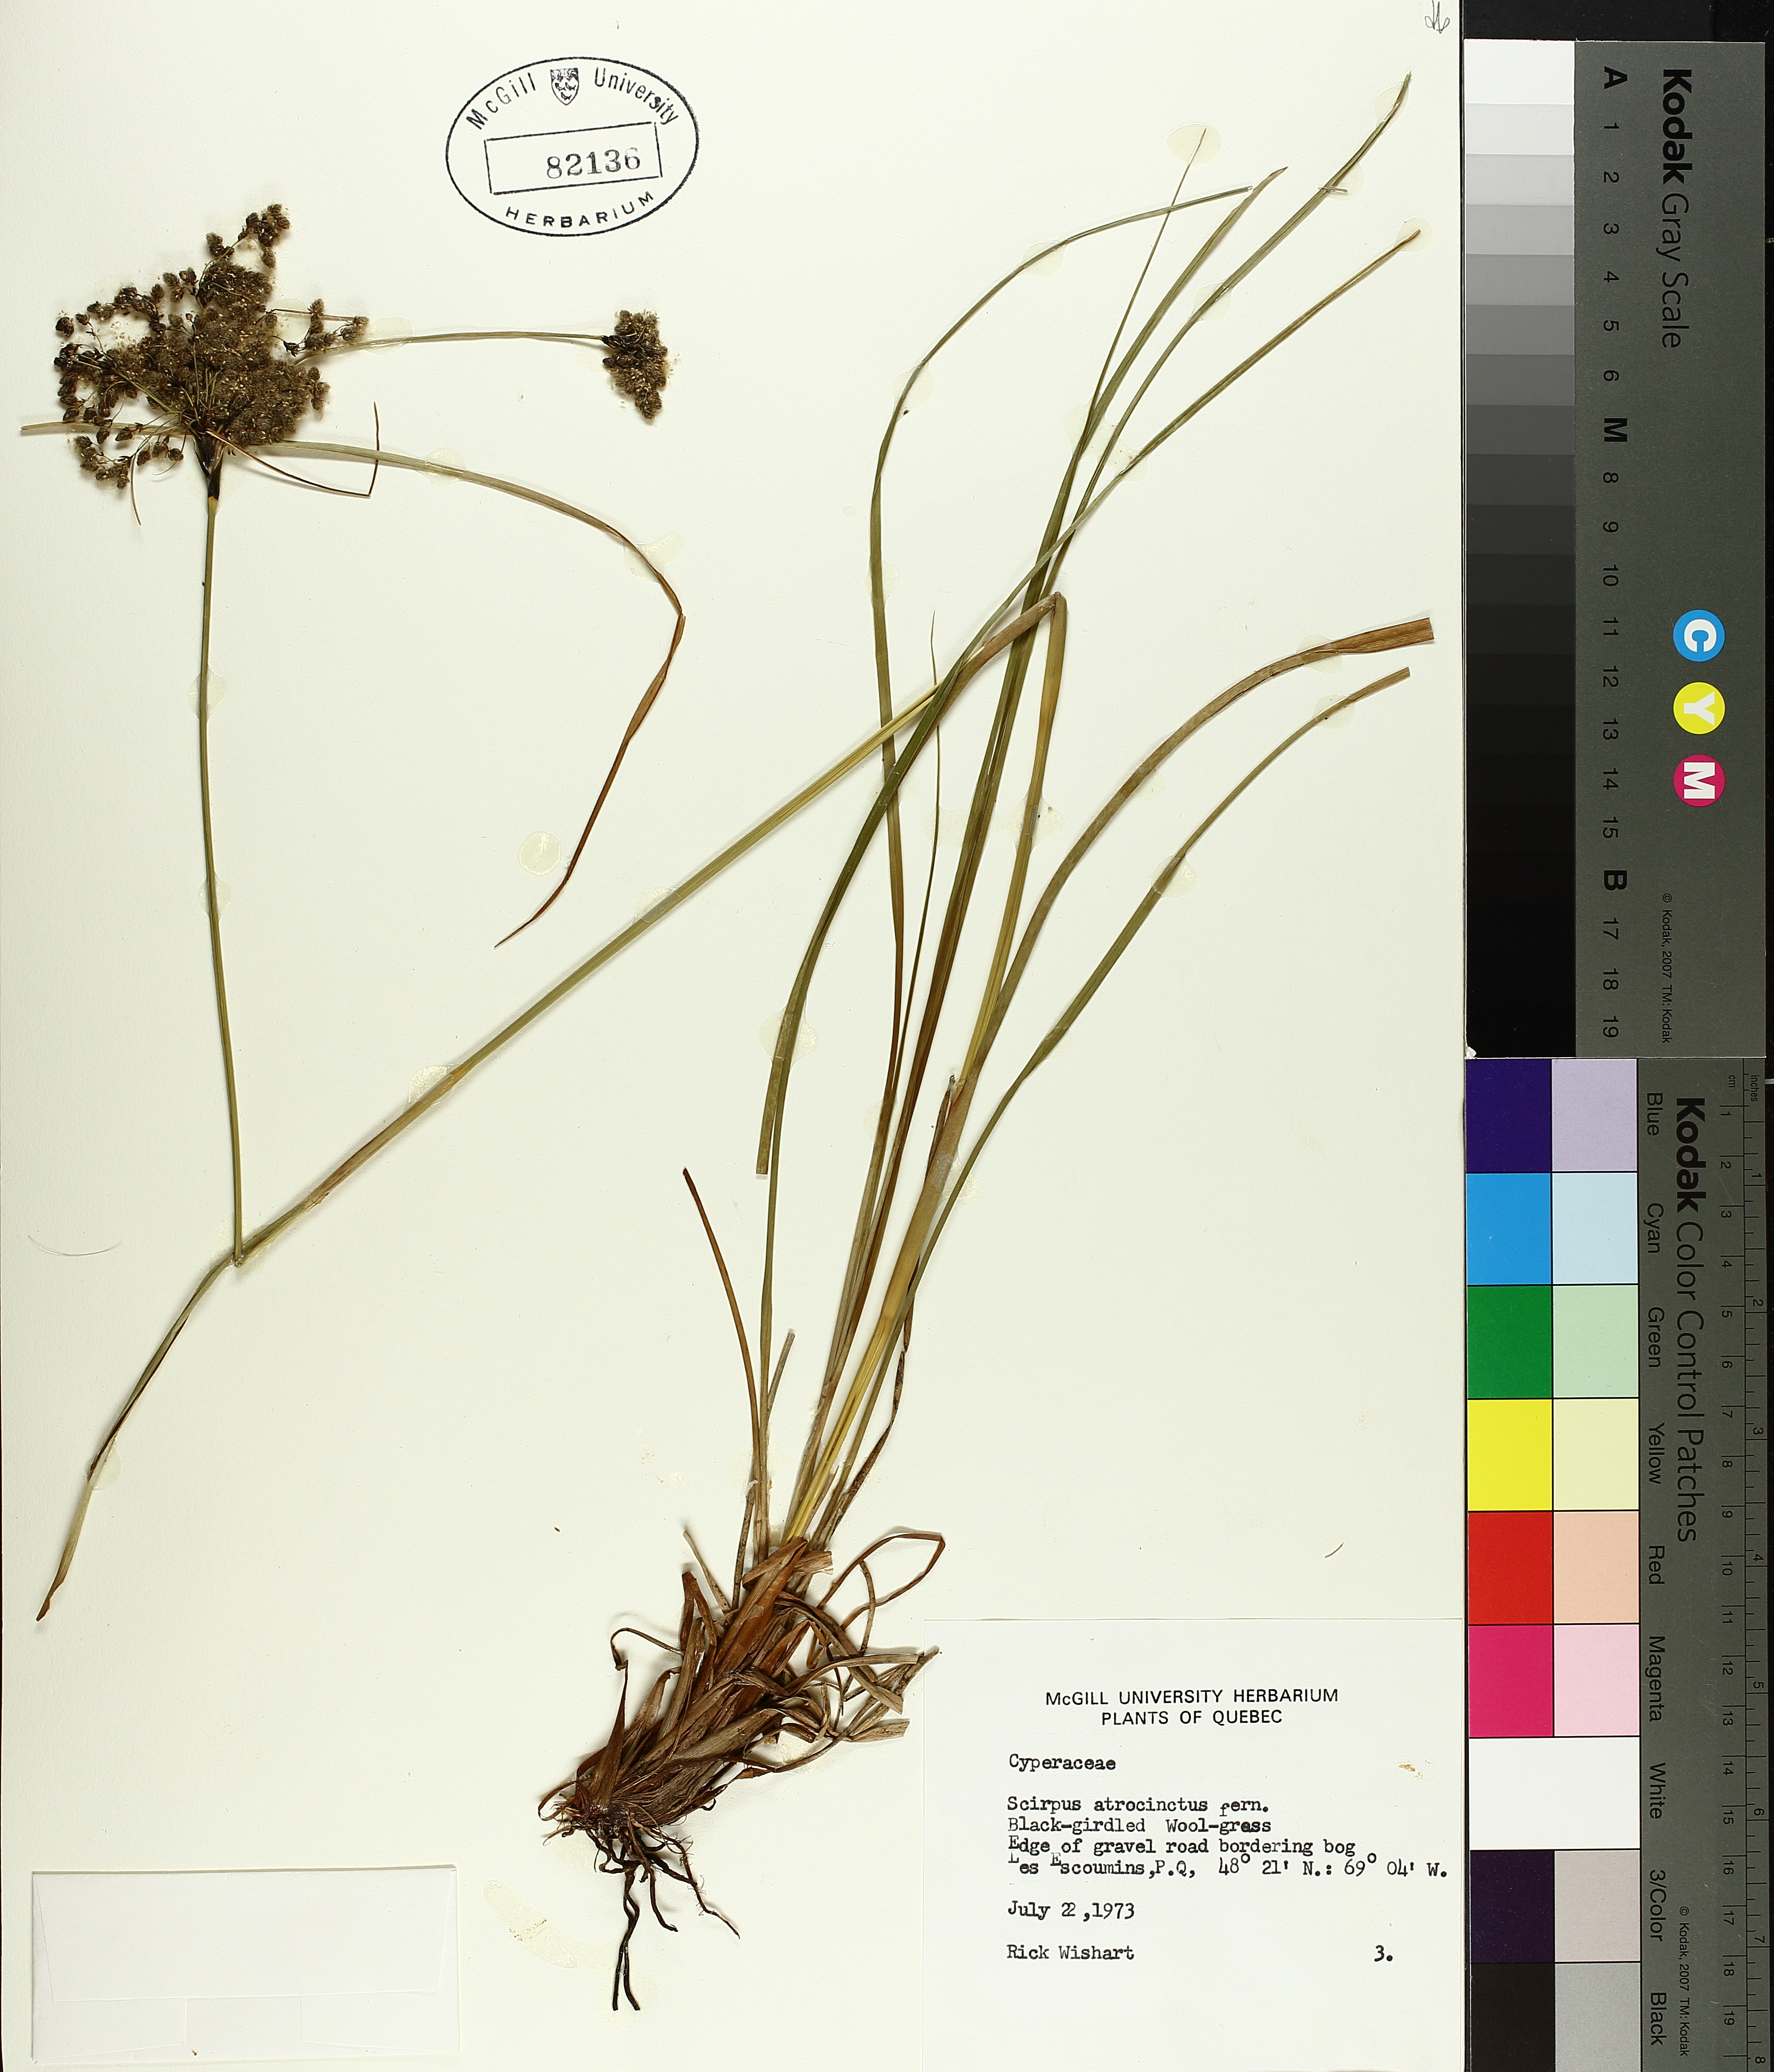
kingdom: Plantae
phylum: Tracheophyta
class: Liliopsida
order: Poales
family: Cyperaceae
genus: Scirpus
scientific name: Scirpus atrocinctus
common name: Black-girdled bulrush
